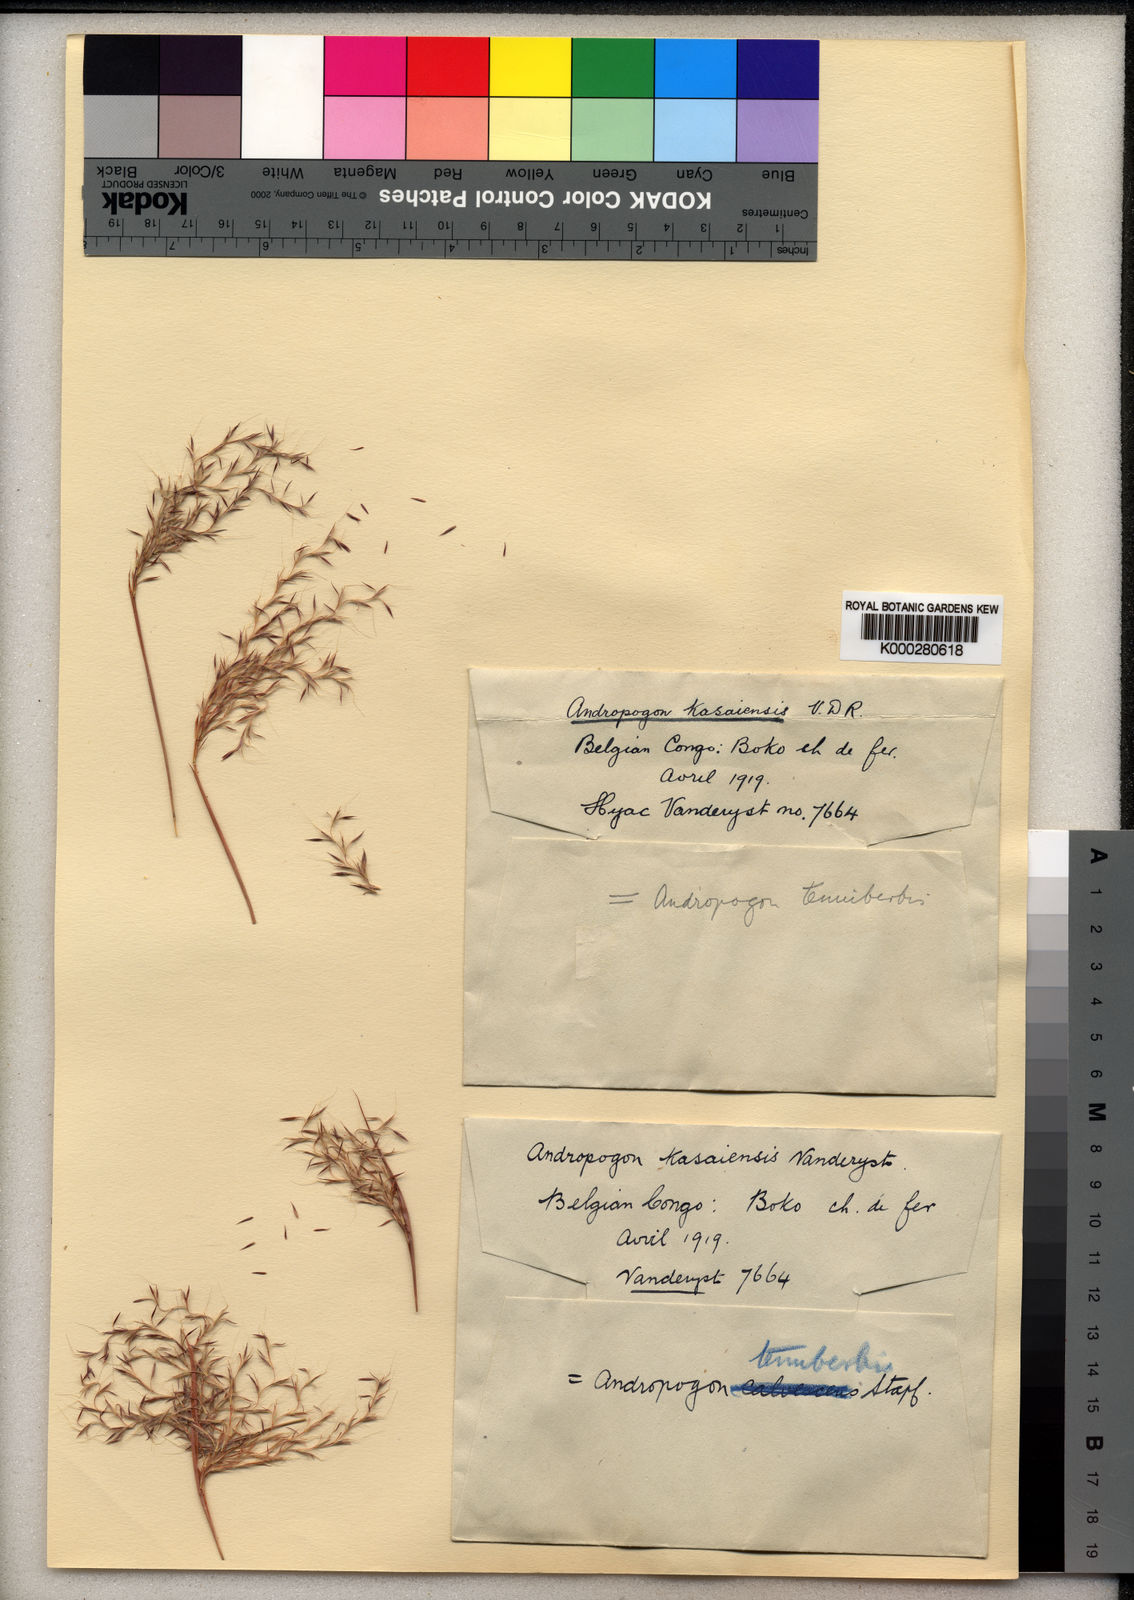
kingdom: Plantae
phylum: Tracheophyta
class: Liliopsida
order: Poales
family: Poaceae
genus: Andropogon
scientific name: Andropogon tenuiberbis
